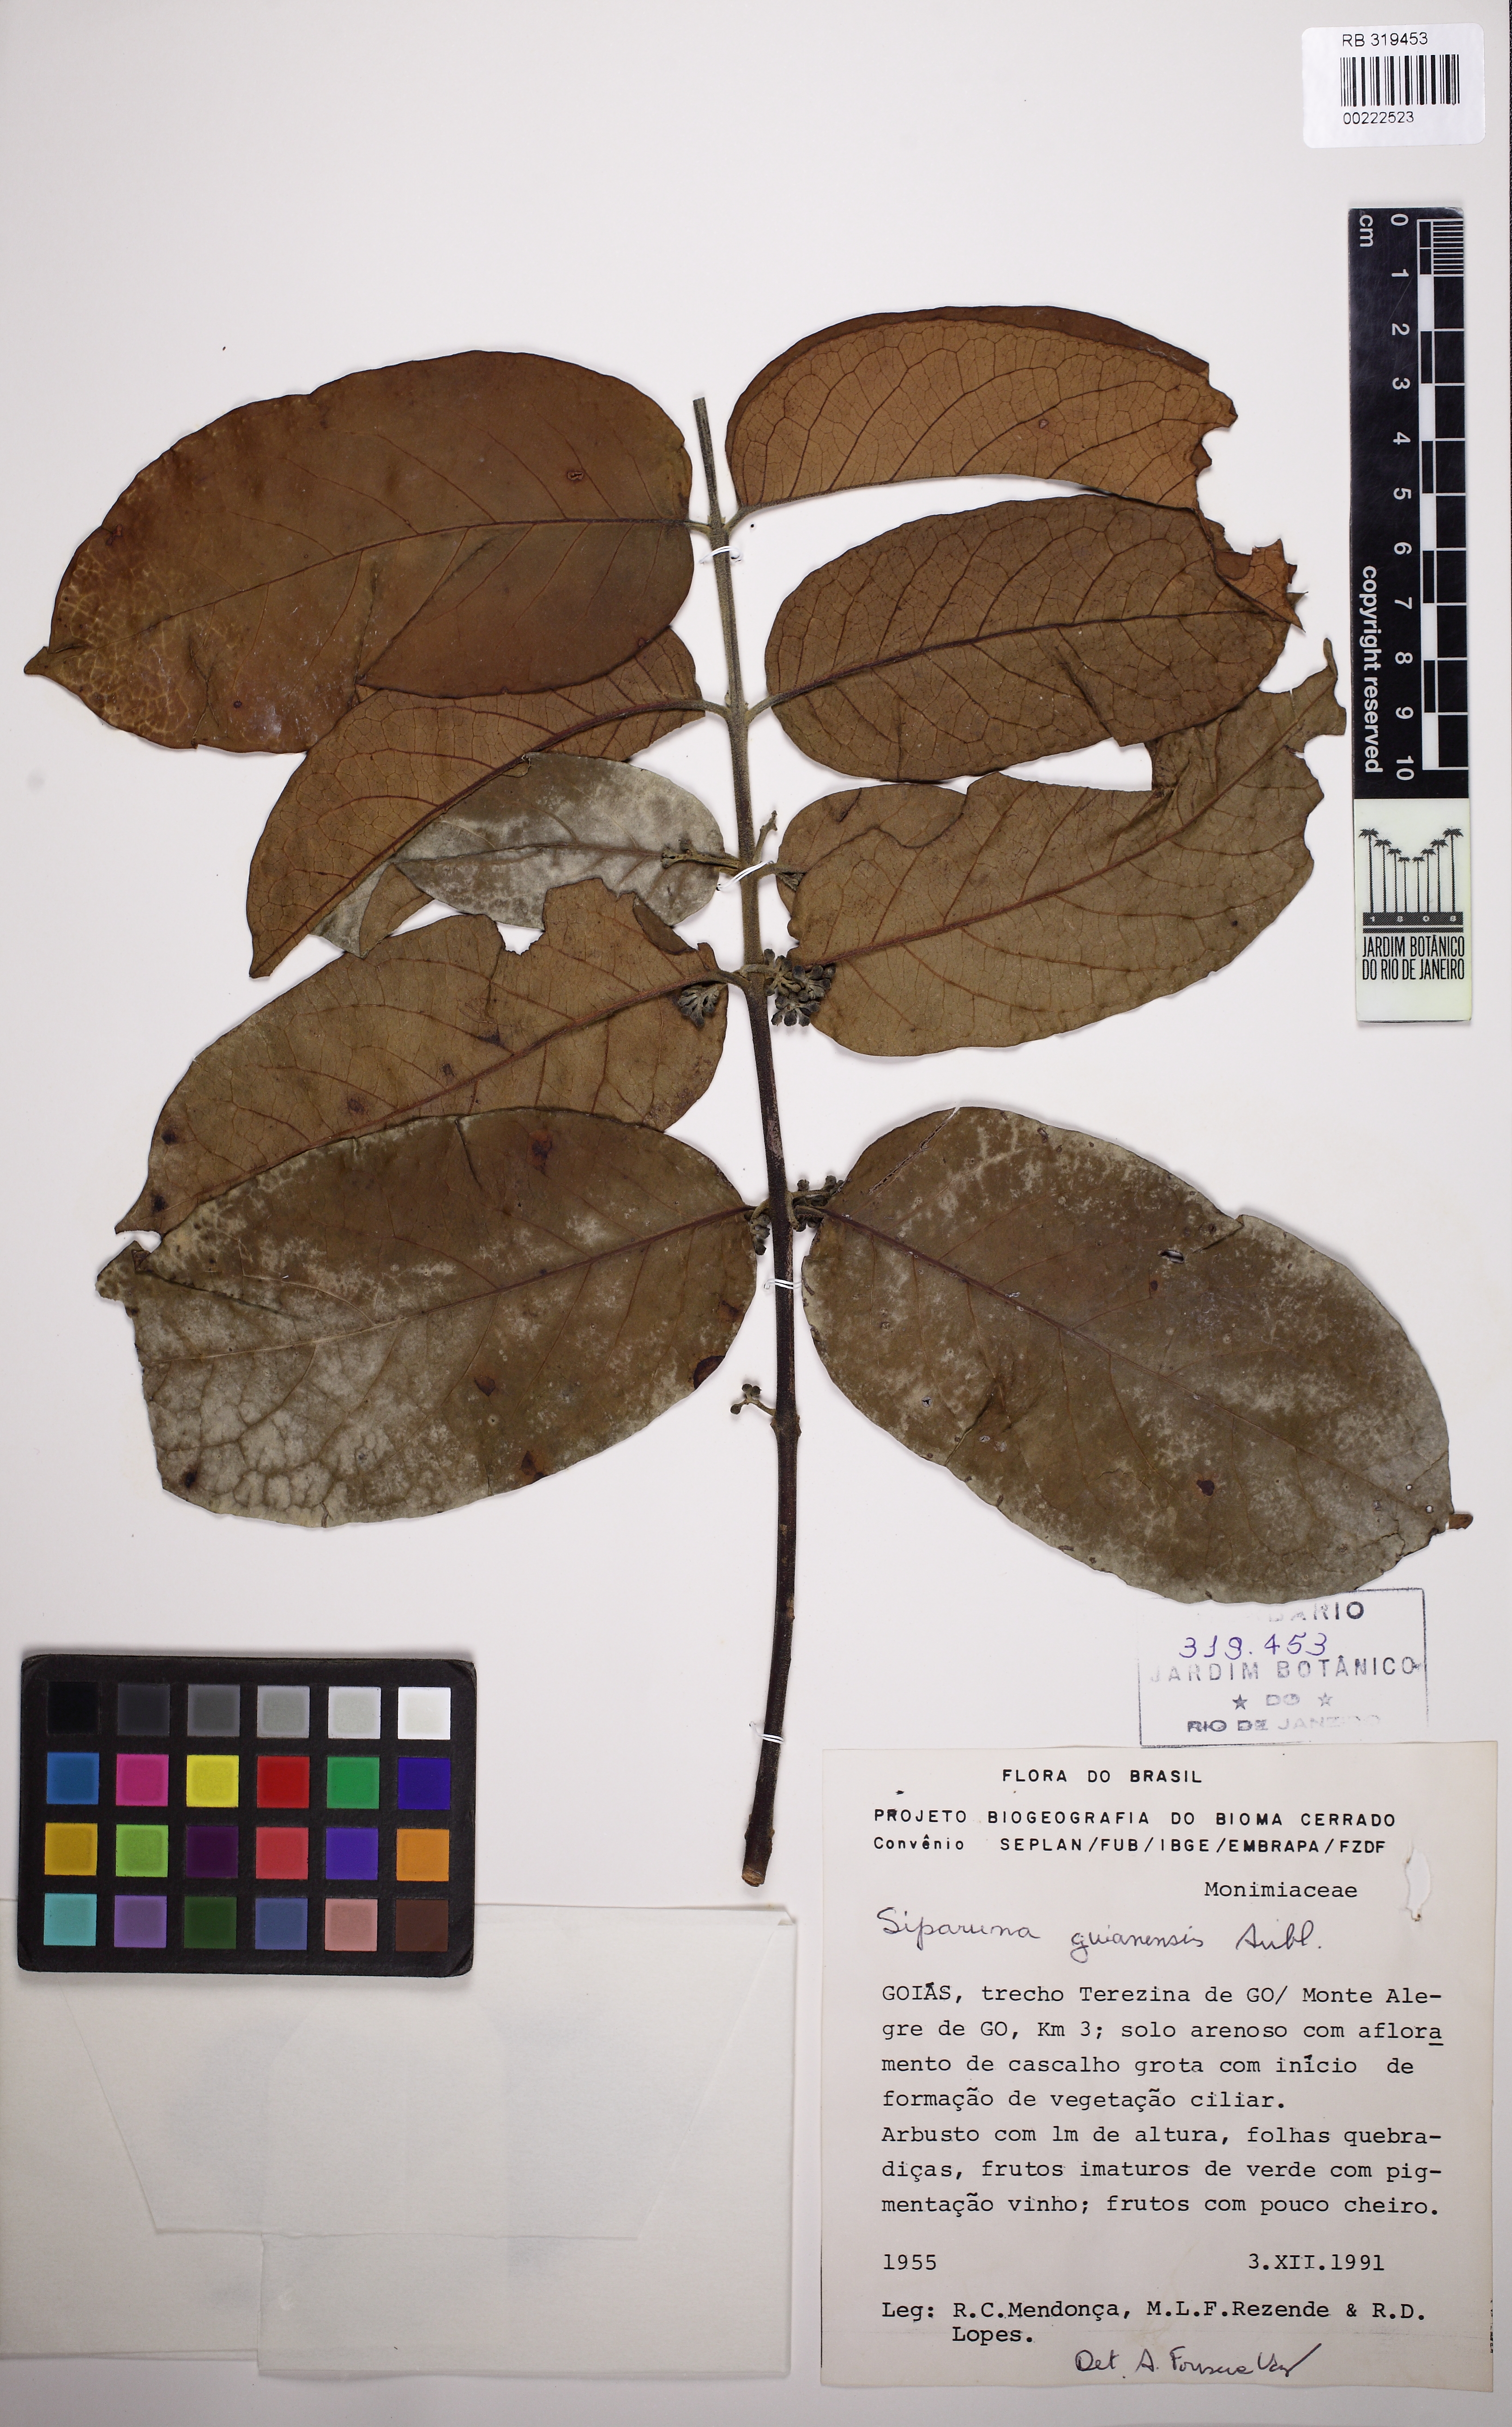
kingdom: Plantae
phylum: Tracheophyta
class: Magnoliopsida
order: Laurales
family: Siparunaceae
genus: Siparuna
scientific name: Siparuna guianensis
